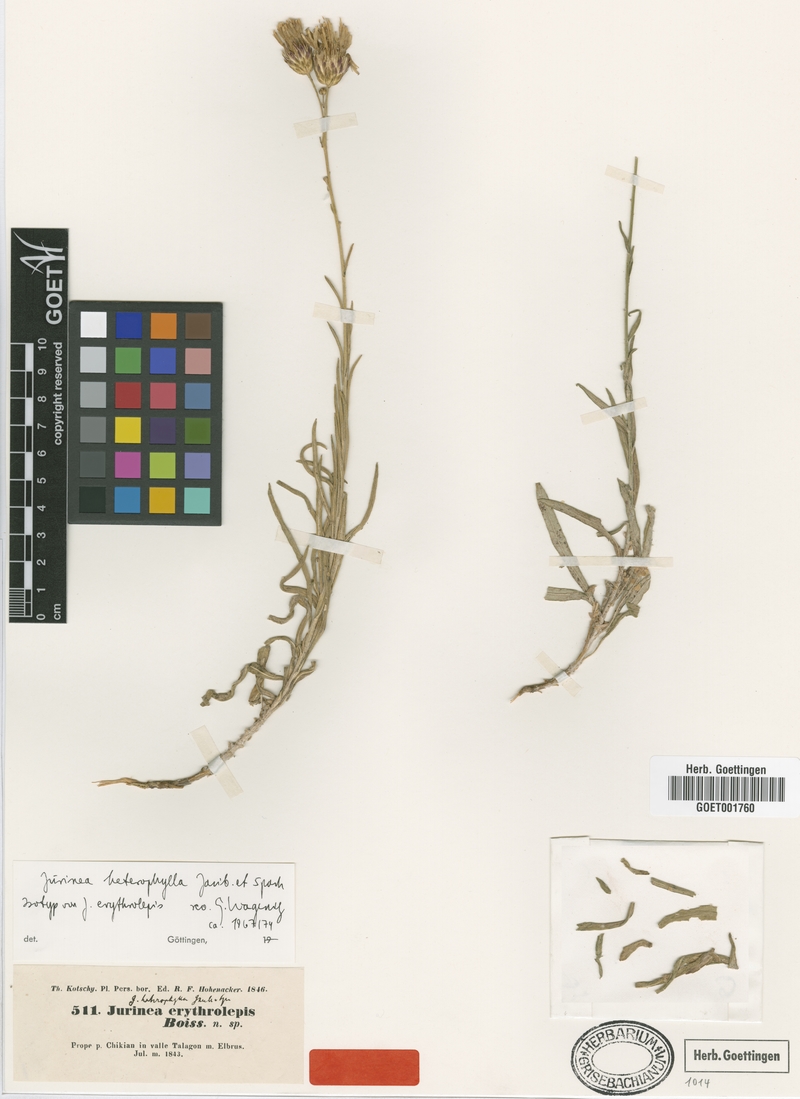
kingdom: Plantae
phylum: Tracheophyta
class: Magnoliopsida
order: Asterales
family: Asteraceae
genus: Jurinea
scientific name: Jurinea heterophylla
